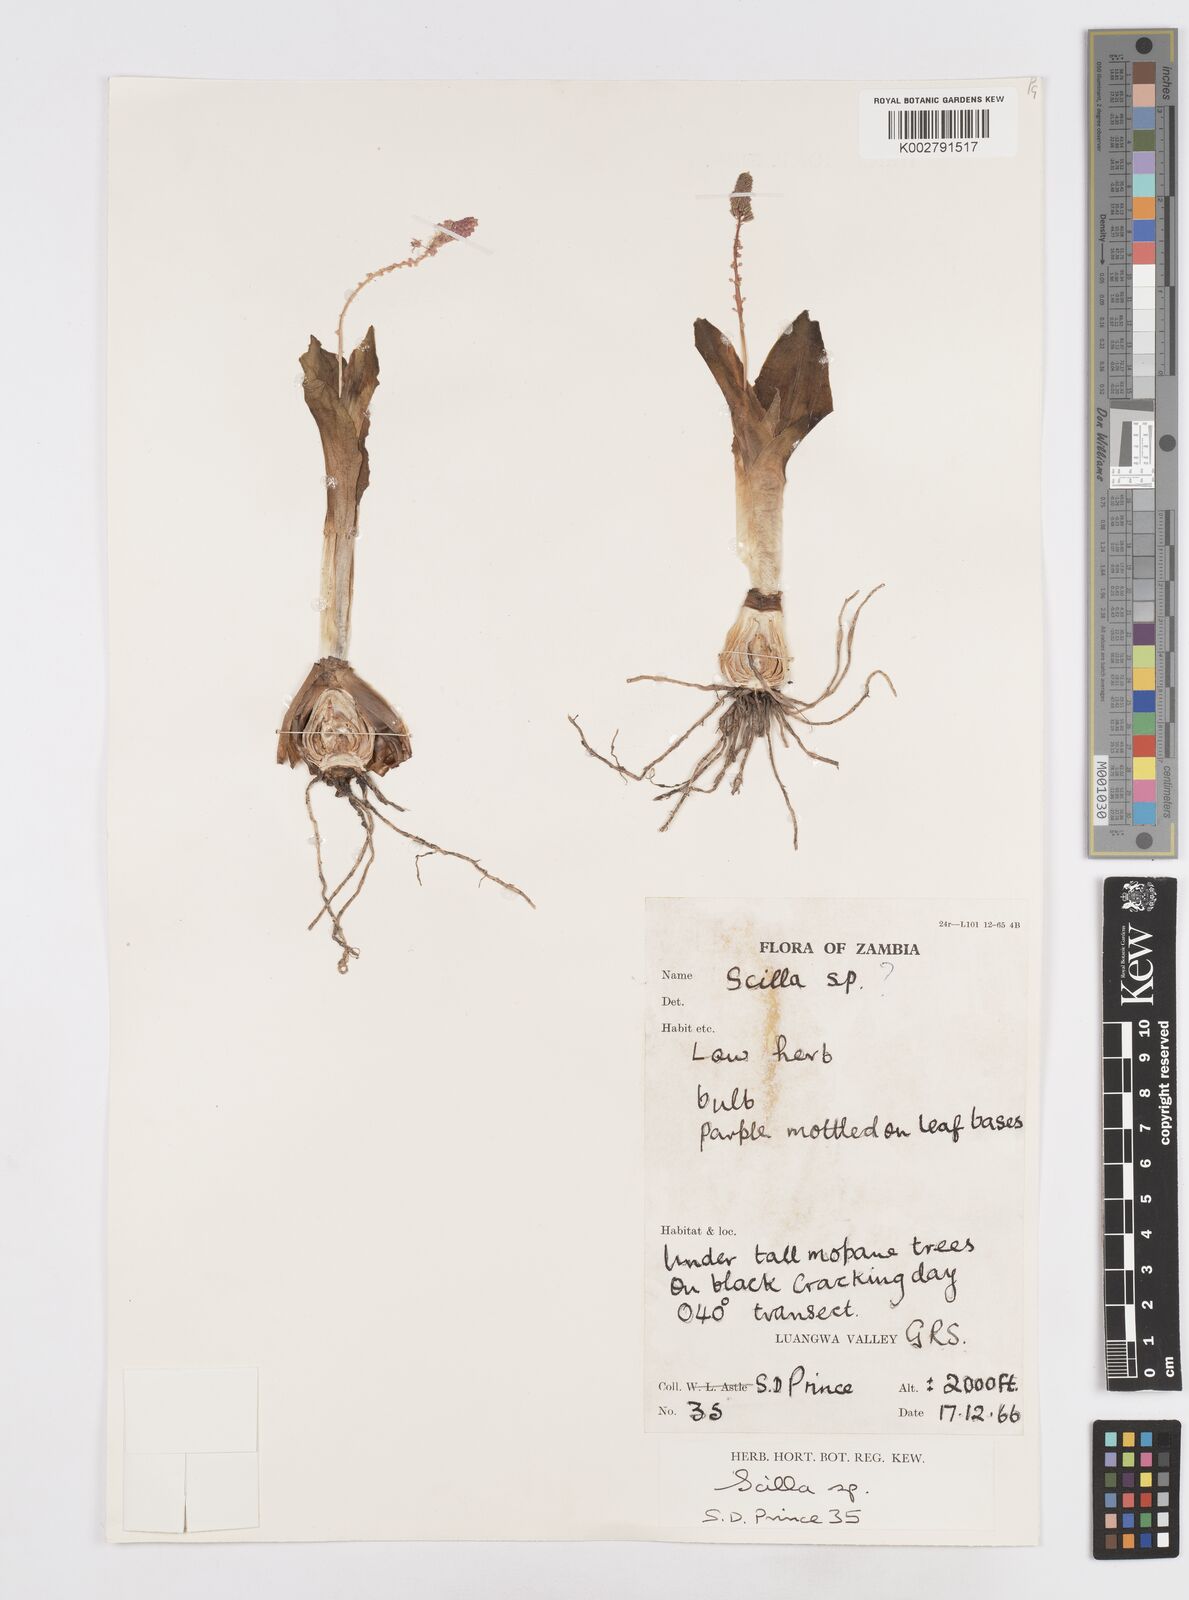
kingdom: Plantae
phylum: Tracheophyta
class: Liliopsida
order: Asparagales
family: Asparagaceae
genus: Scilla
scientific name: Scilla
